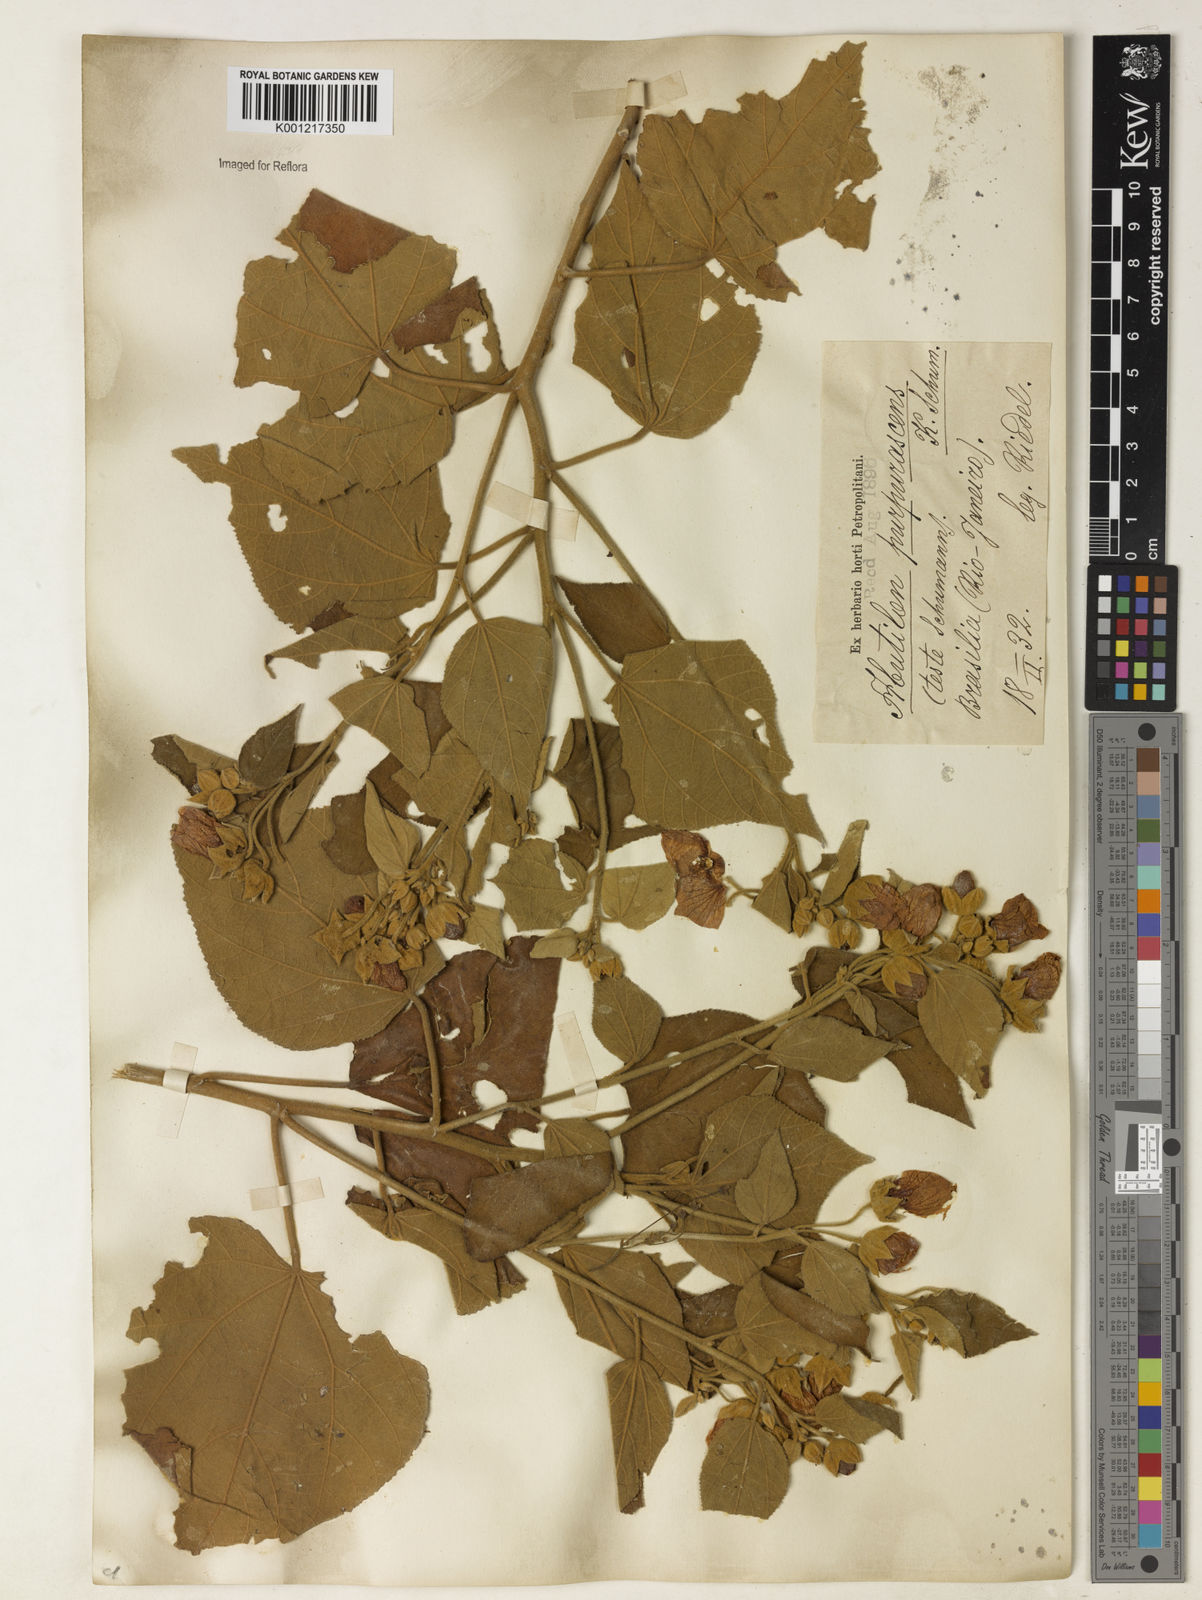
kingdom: Plantae
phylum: Tracheophyta
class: Magnoliopsida
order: Malvales
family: Malvaceae
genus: Bakeridesia
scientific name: Bakeridesia esculenta
